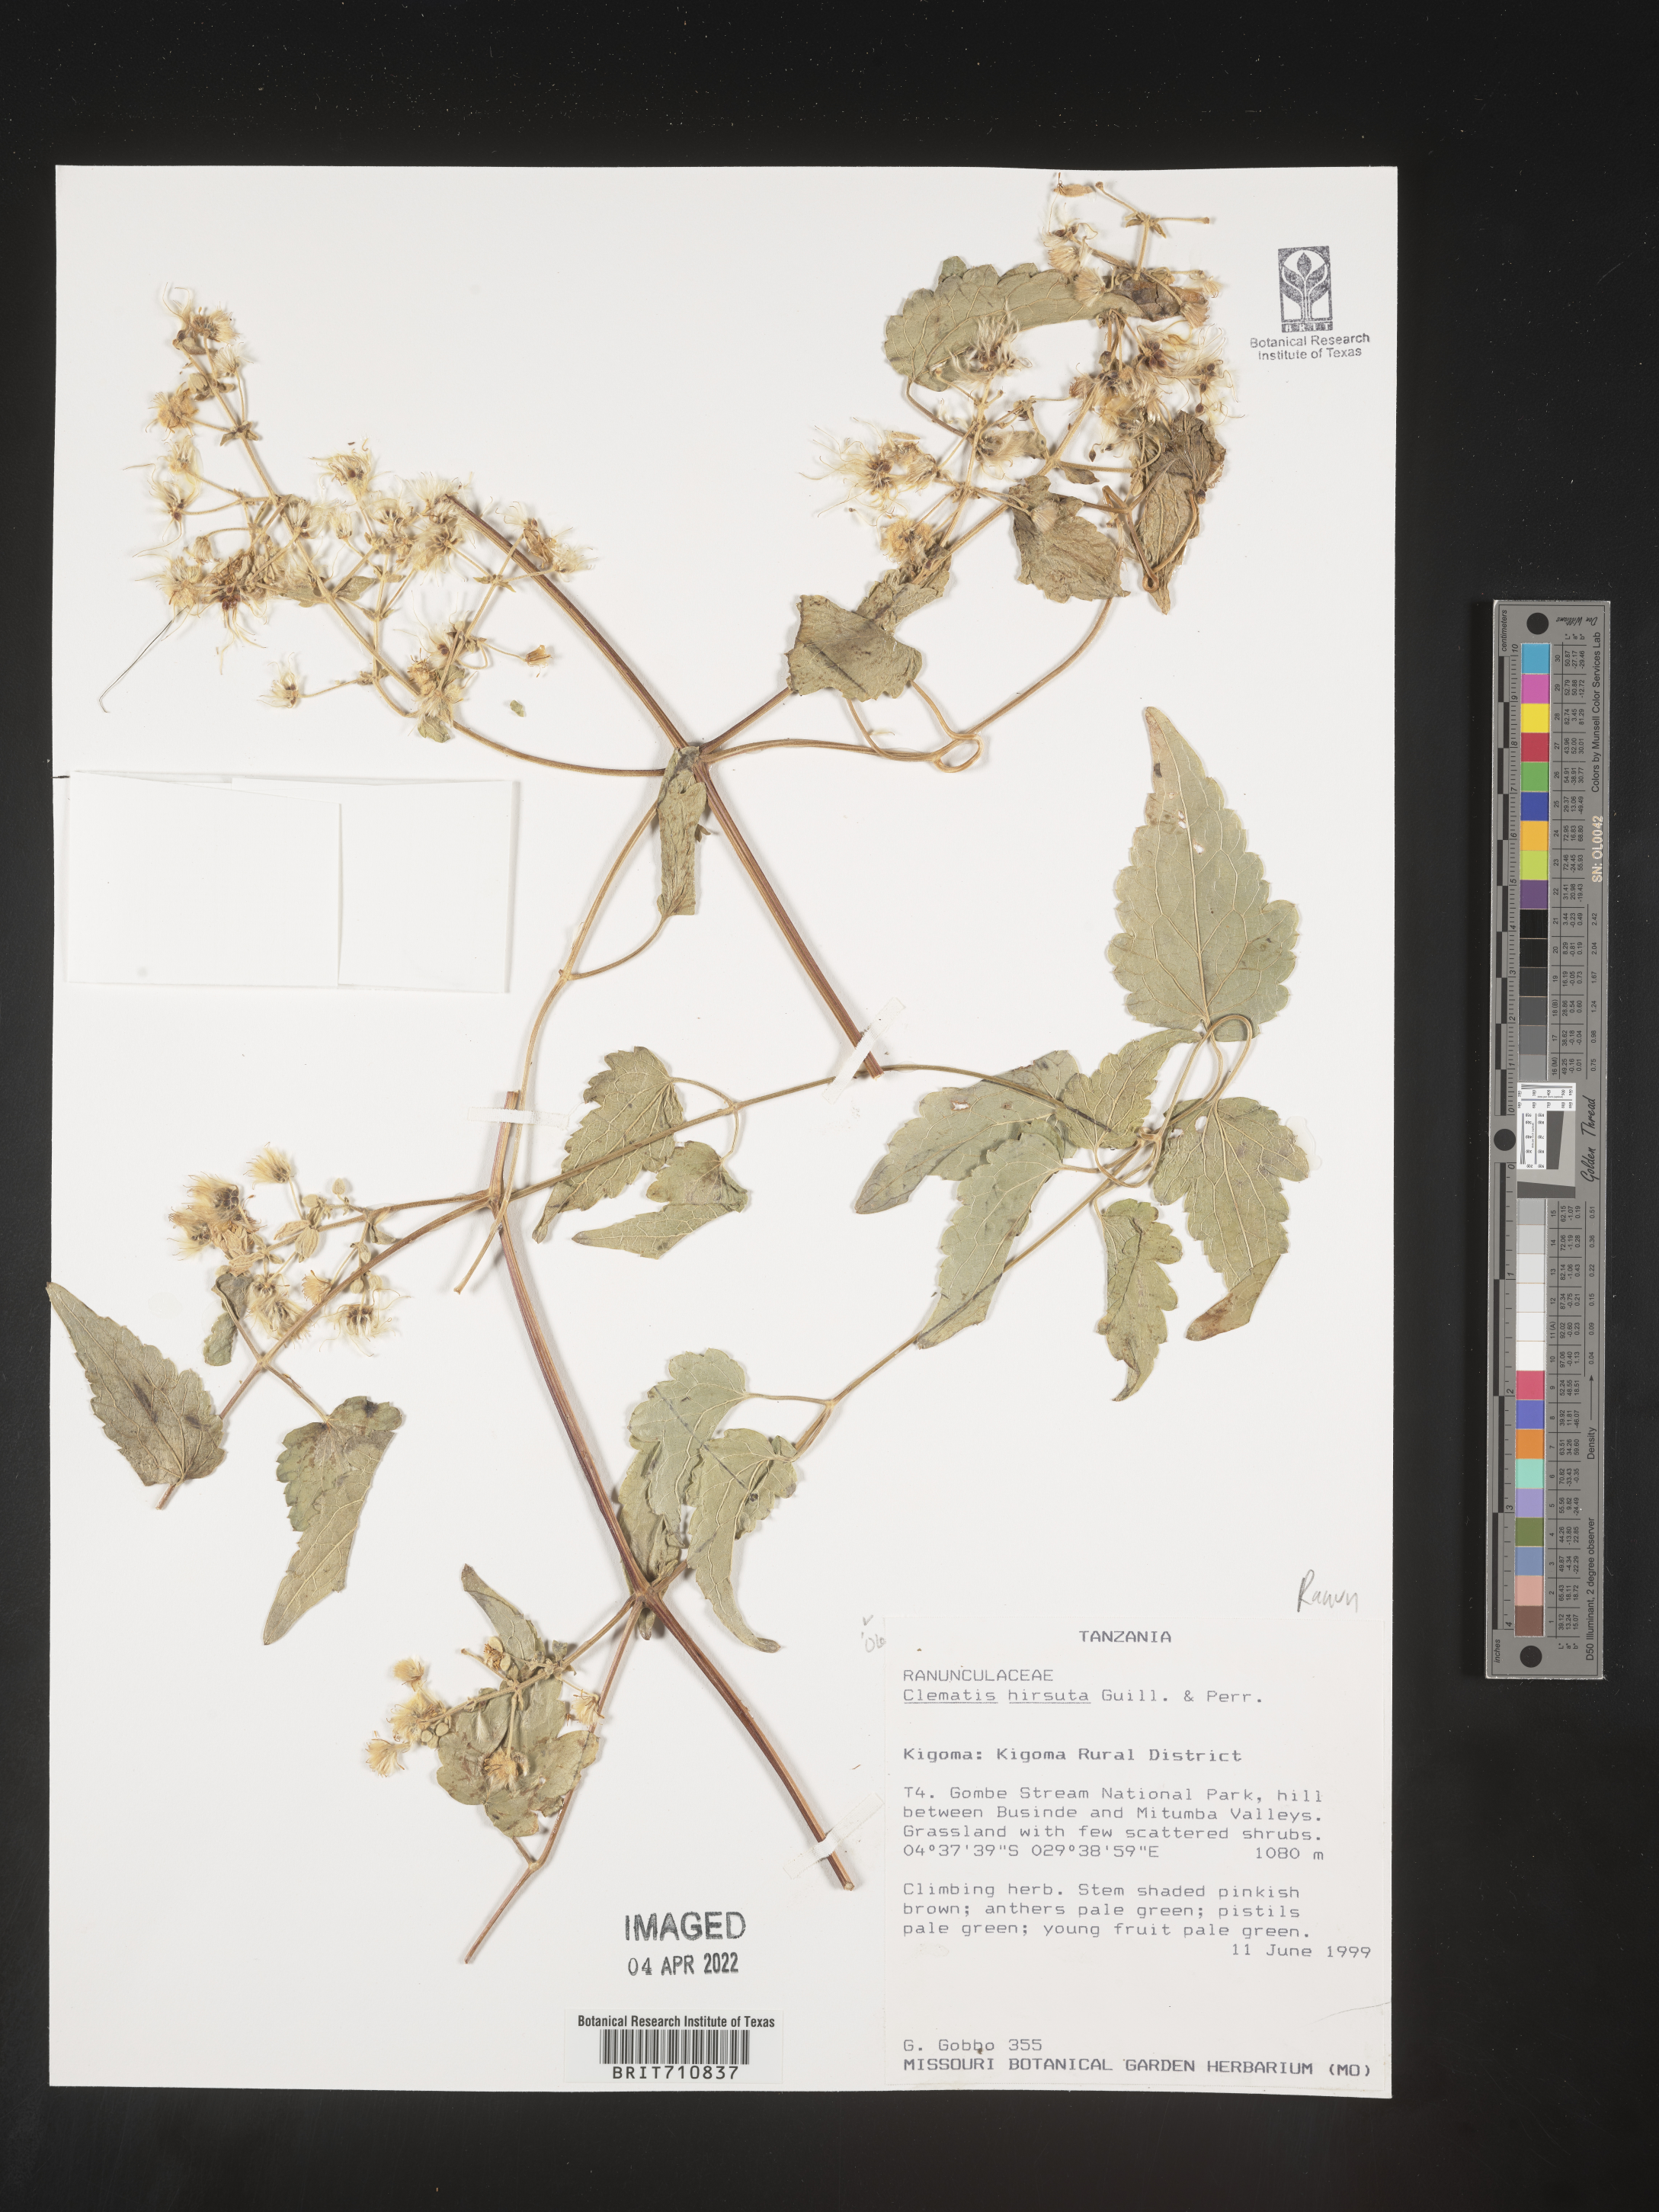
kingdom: Plantae
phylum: Tracheophyta
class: Magnoliopsida
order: Ranunculales
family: Ranunculaceae
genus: Clematis
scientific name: Clematis
